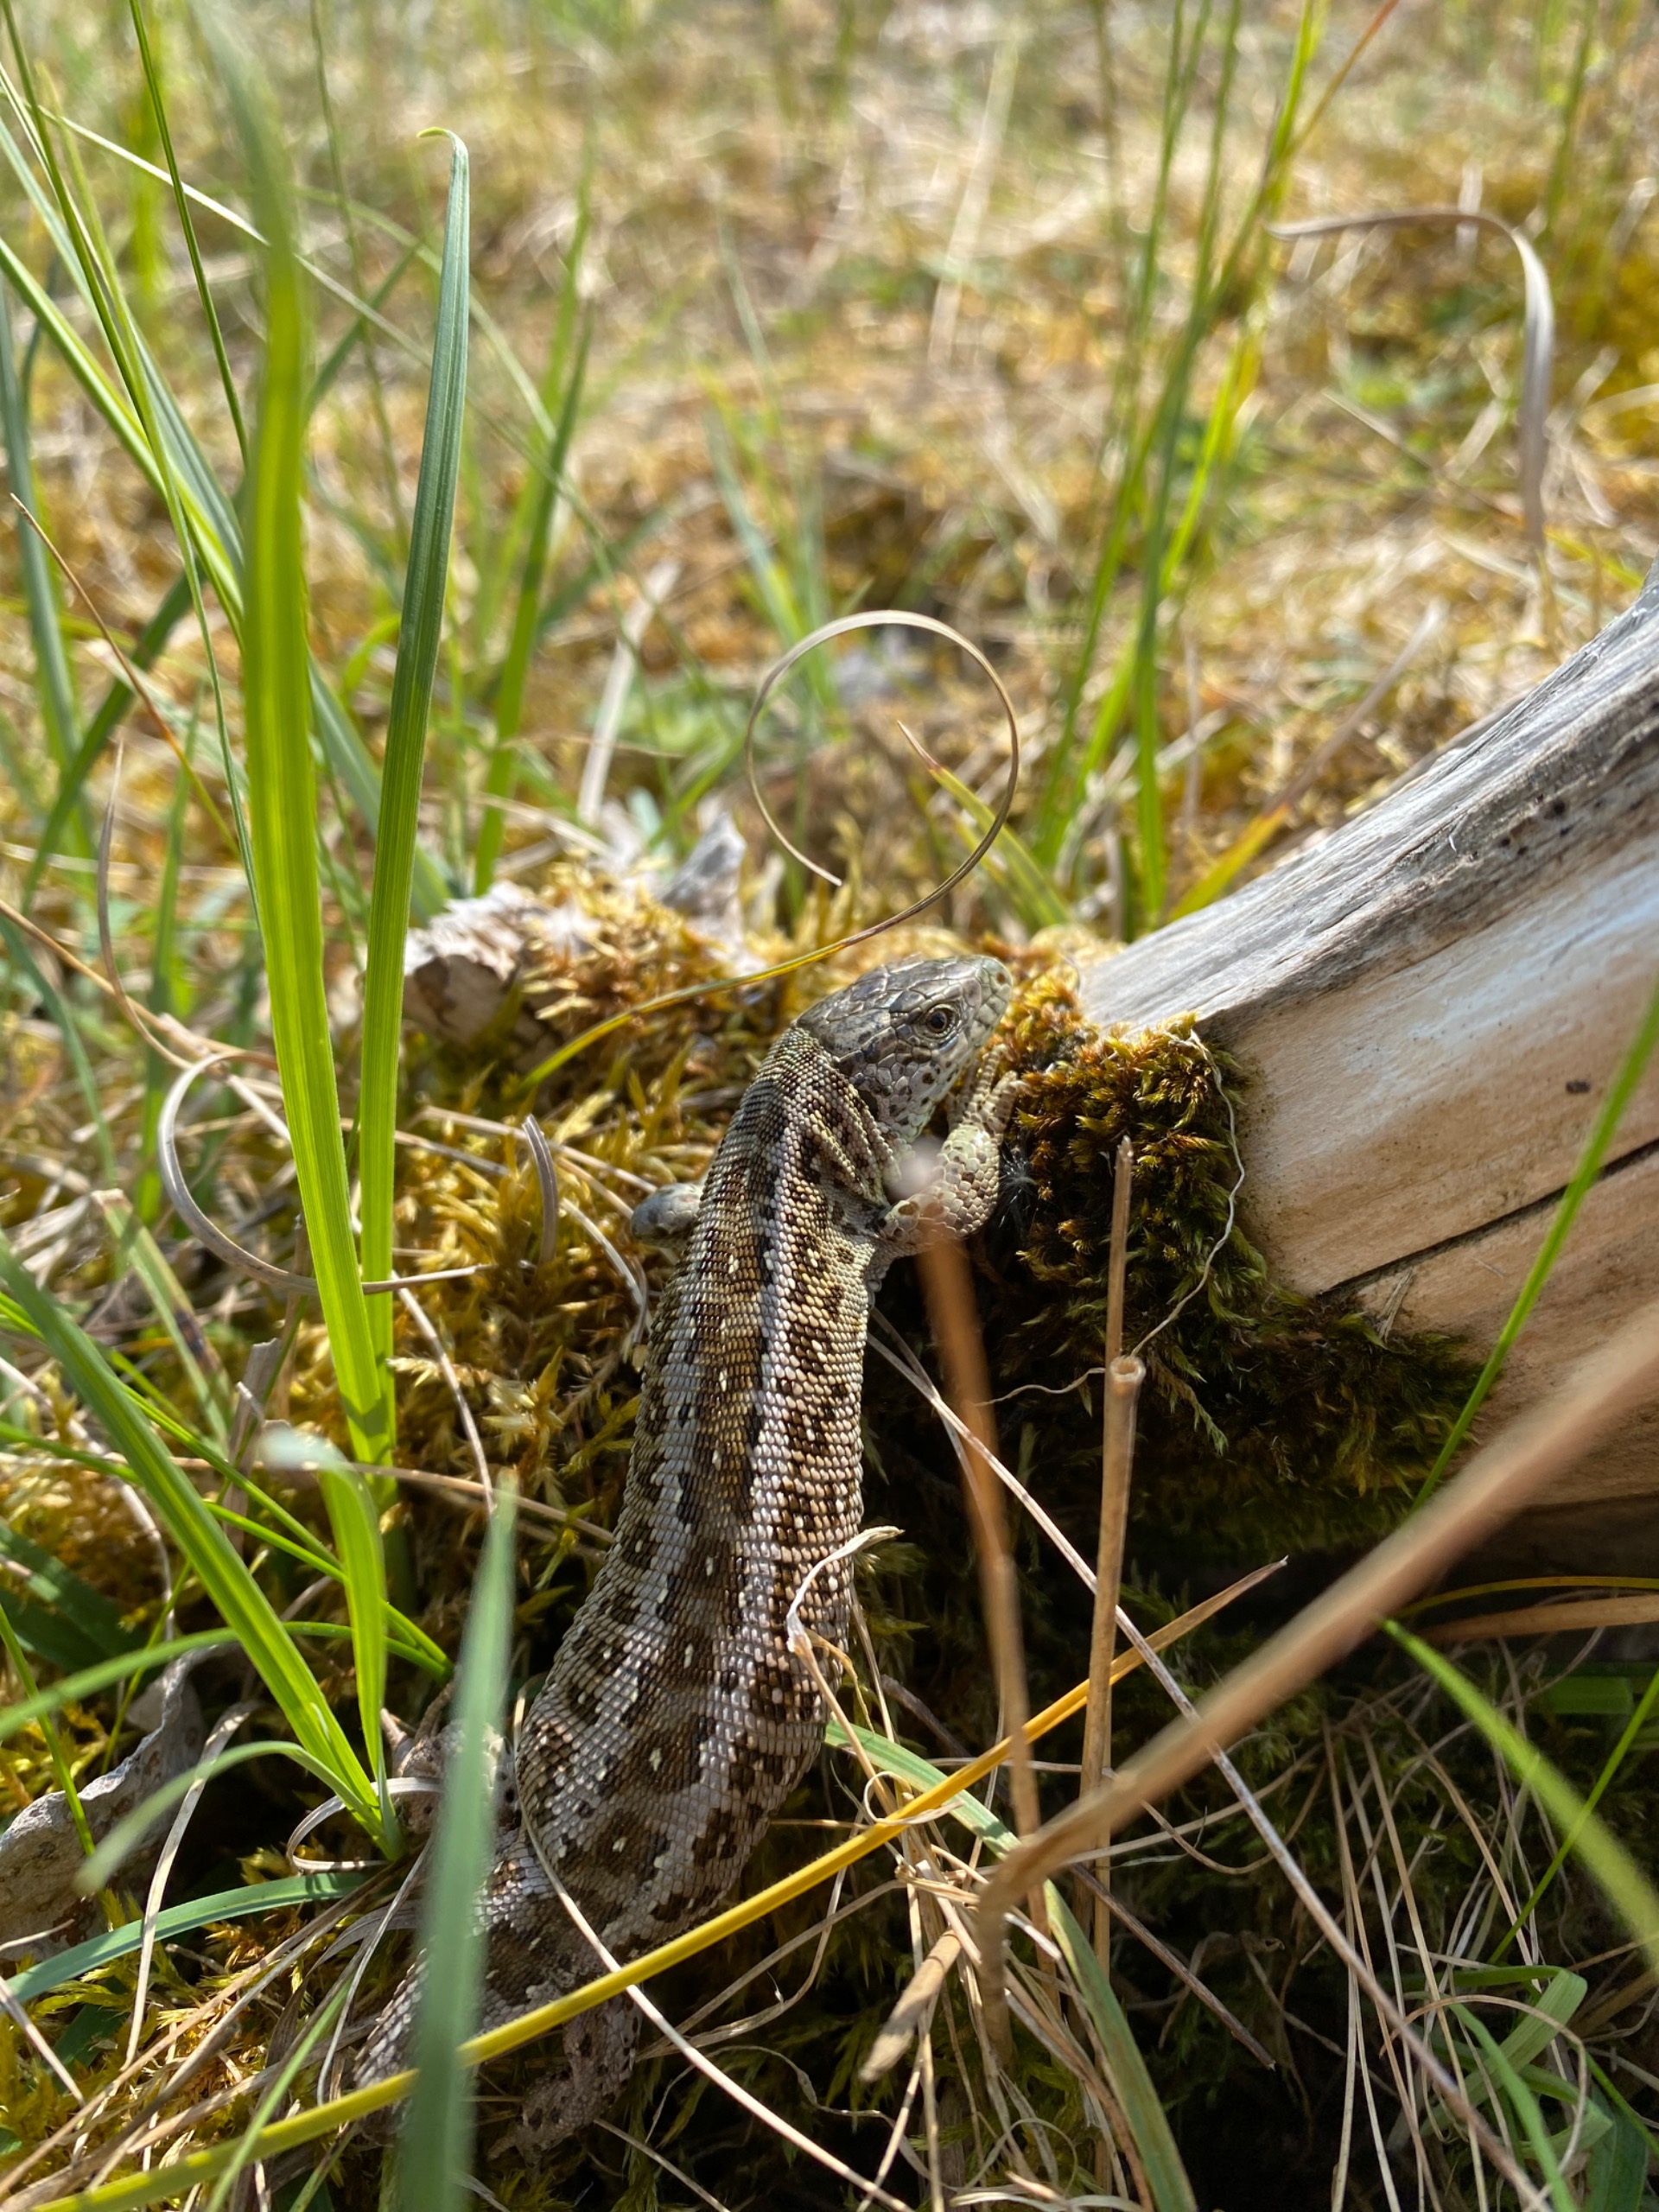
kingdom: Animalia
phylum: Chordata
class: Squamata
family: Lacertidae
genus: Lacerta
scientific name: Lacerta agilis
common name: Markfirben
